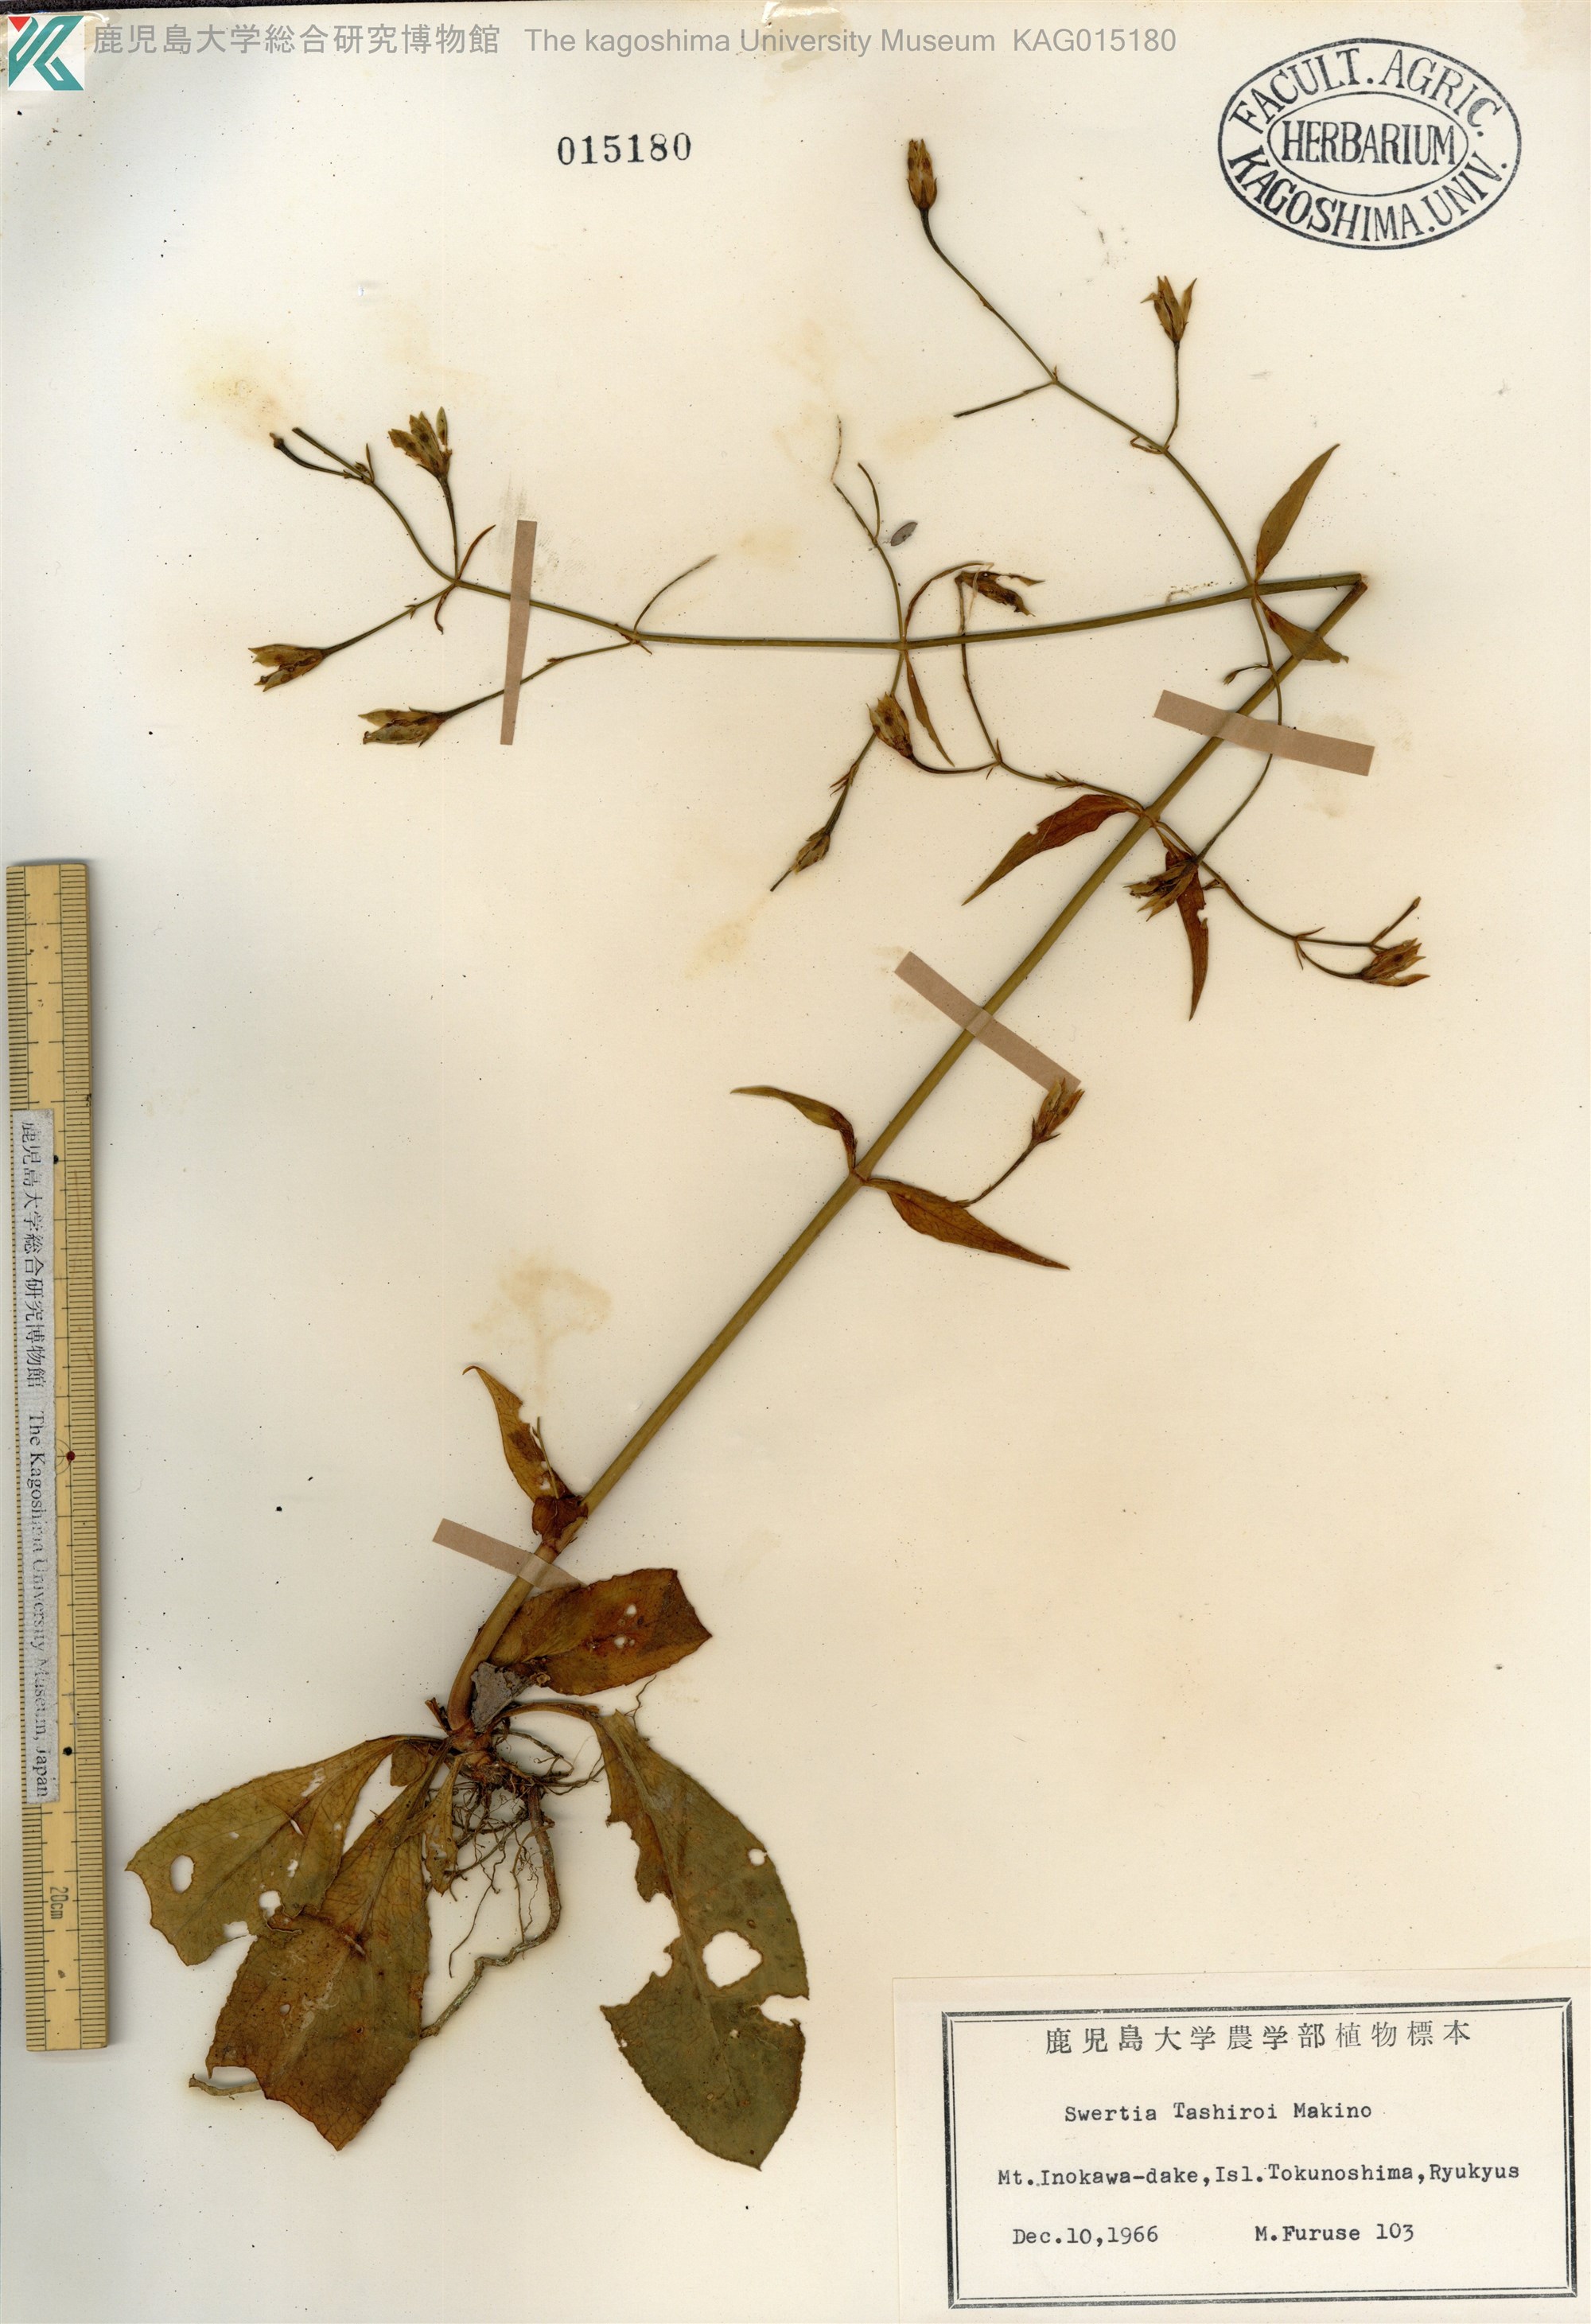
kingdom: Plantae
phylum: Tracheophyta
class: Magnoliopsida
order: Gentianales
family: Gentianaceae
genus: Swertia
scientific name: Swertia tashiroi
